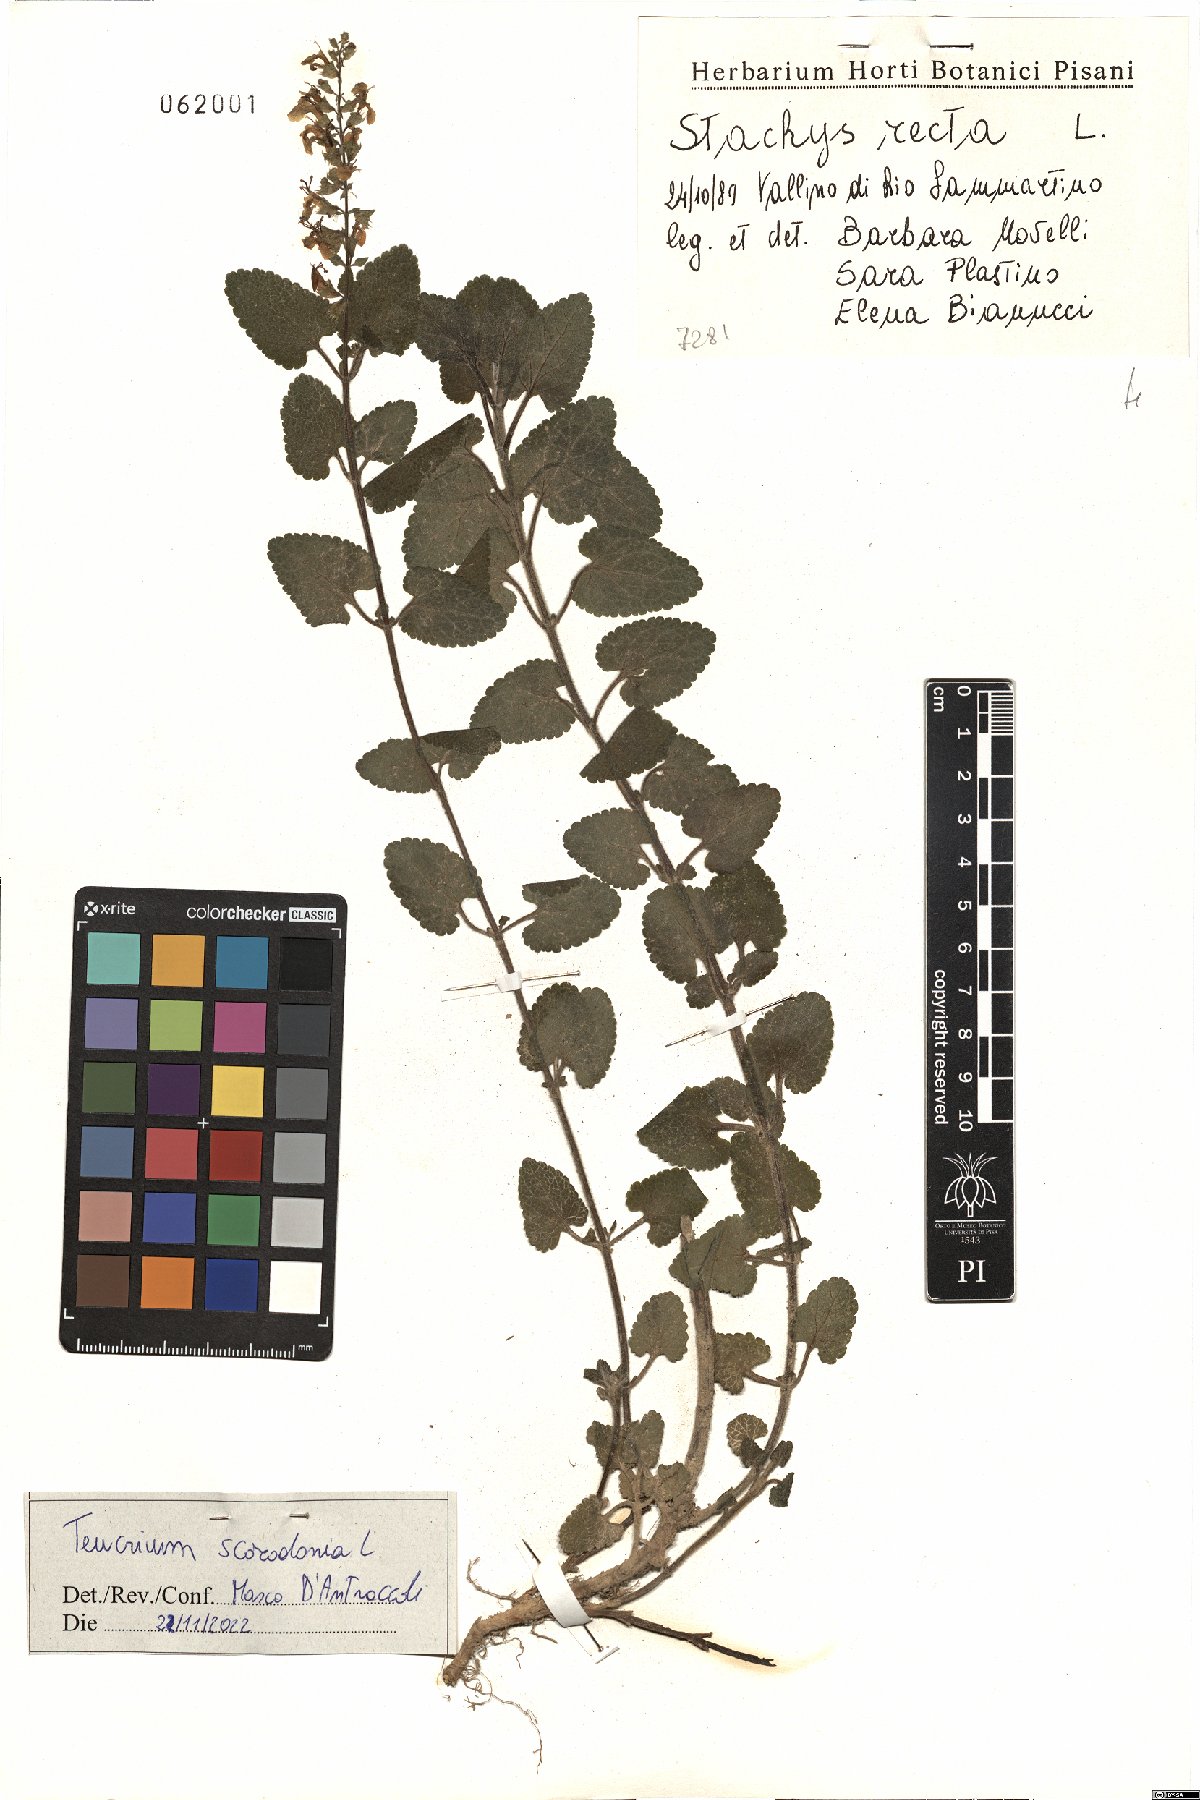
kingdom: Plantae
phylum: Tracheophyta
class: Magnoliopsida
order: Lamiales
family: Lamiaceae
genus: Teucrium
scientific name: Teucrium scorodonia
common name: Woodland germander
